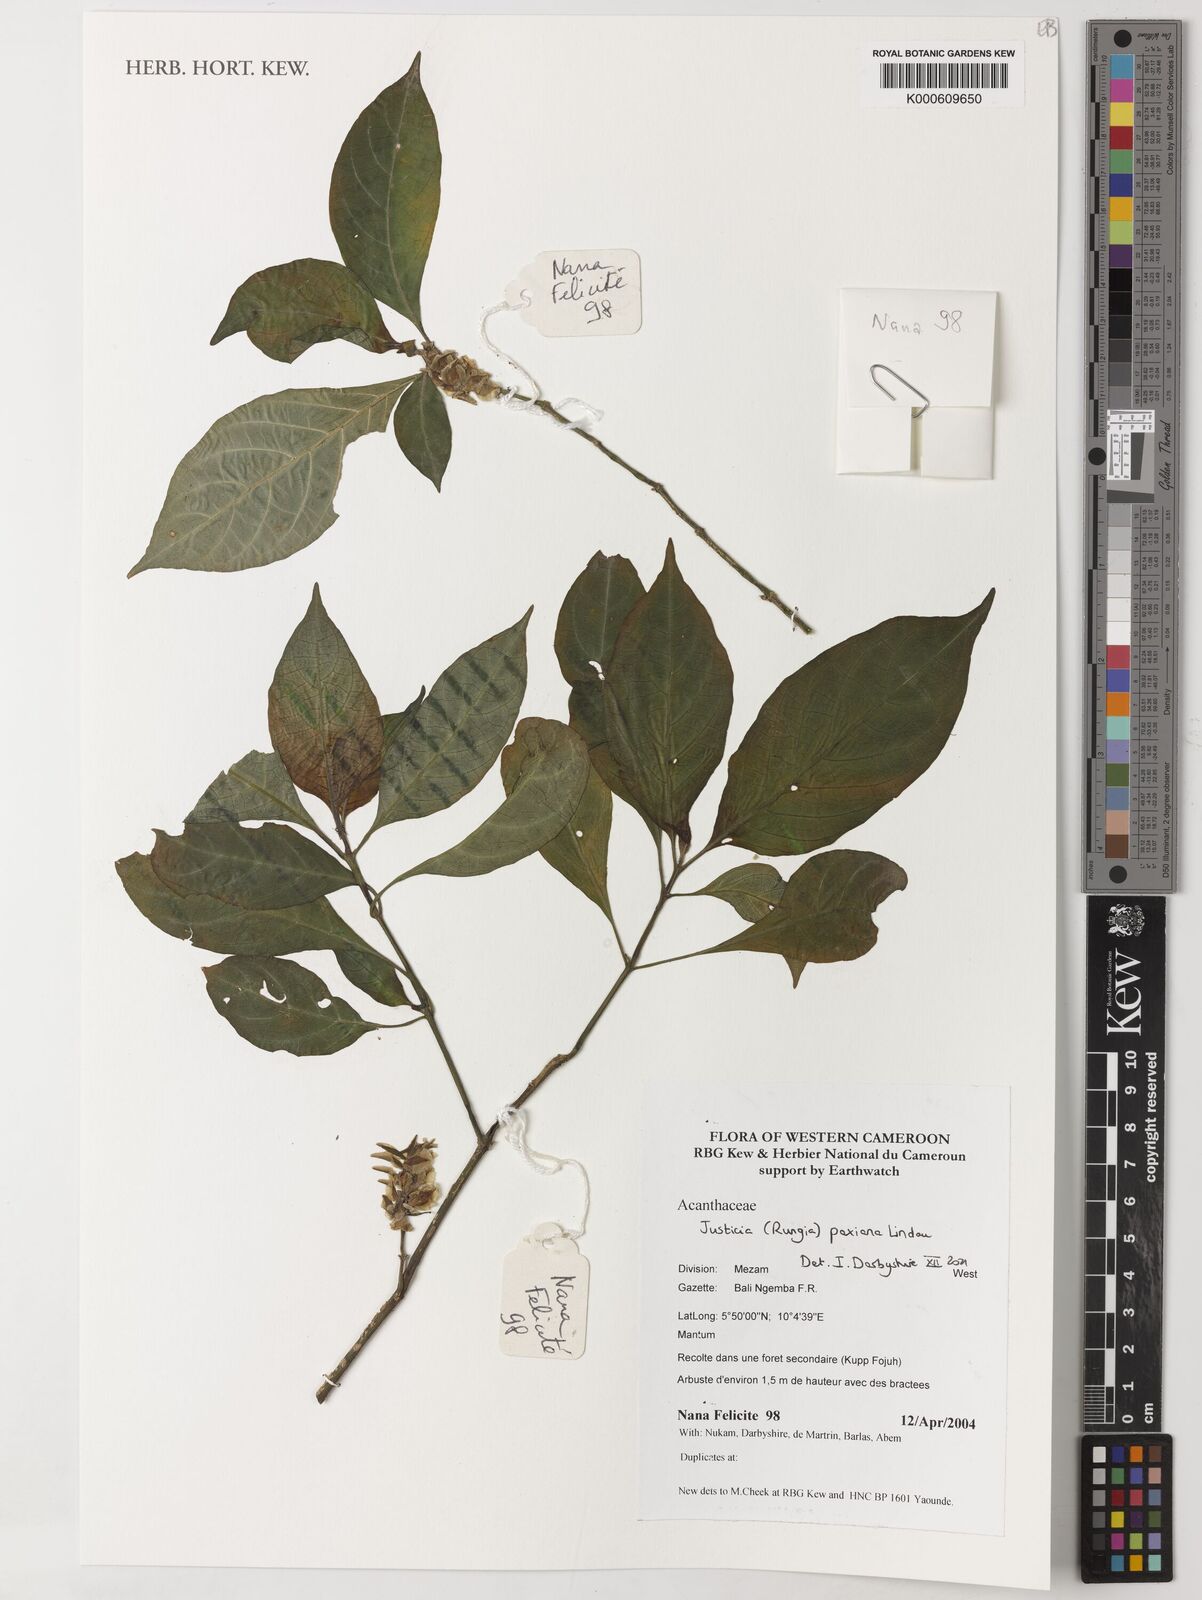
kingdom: Plantae
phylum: Tracheophyta
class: Magnoliopsida
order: Lamiales
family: Acanthaceae
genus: Rungia
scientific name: Rungia paxiana
